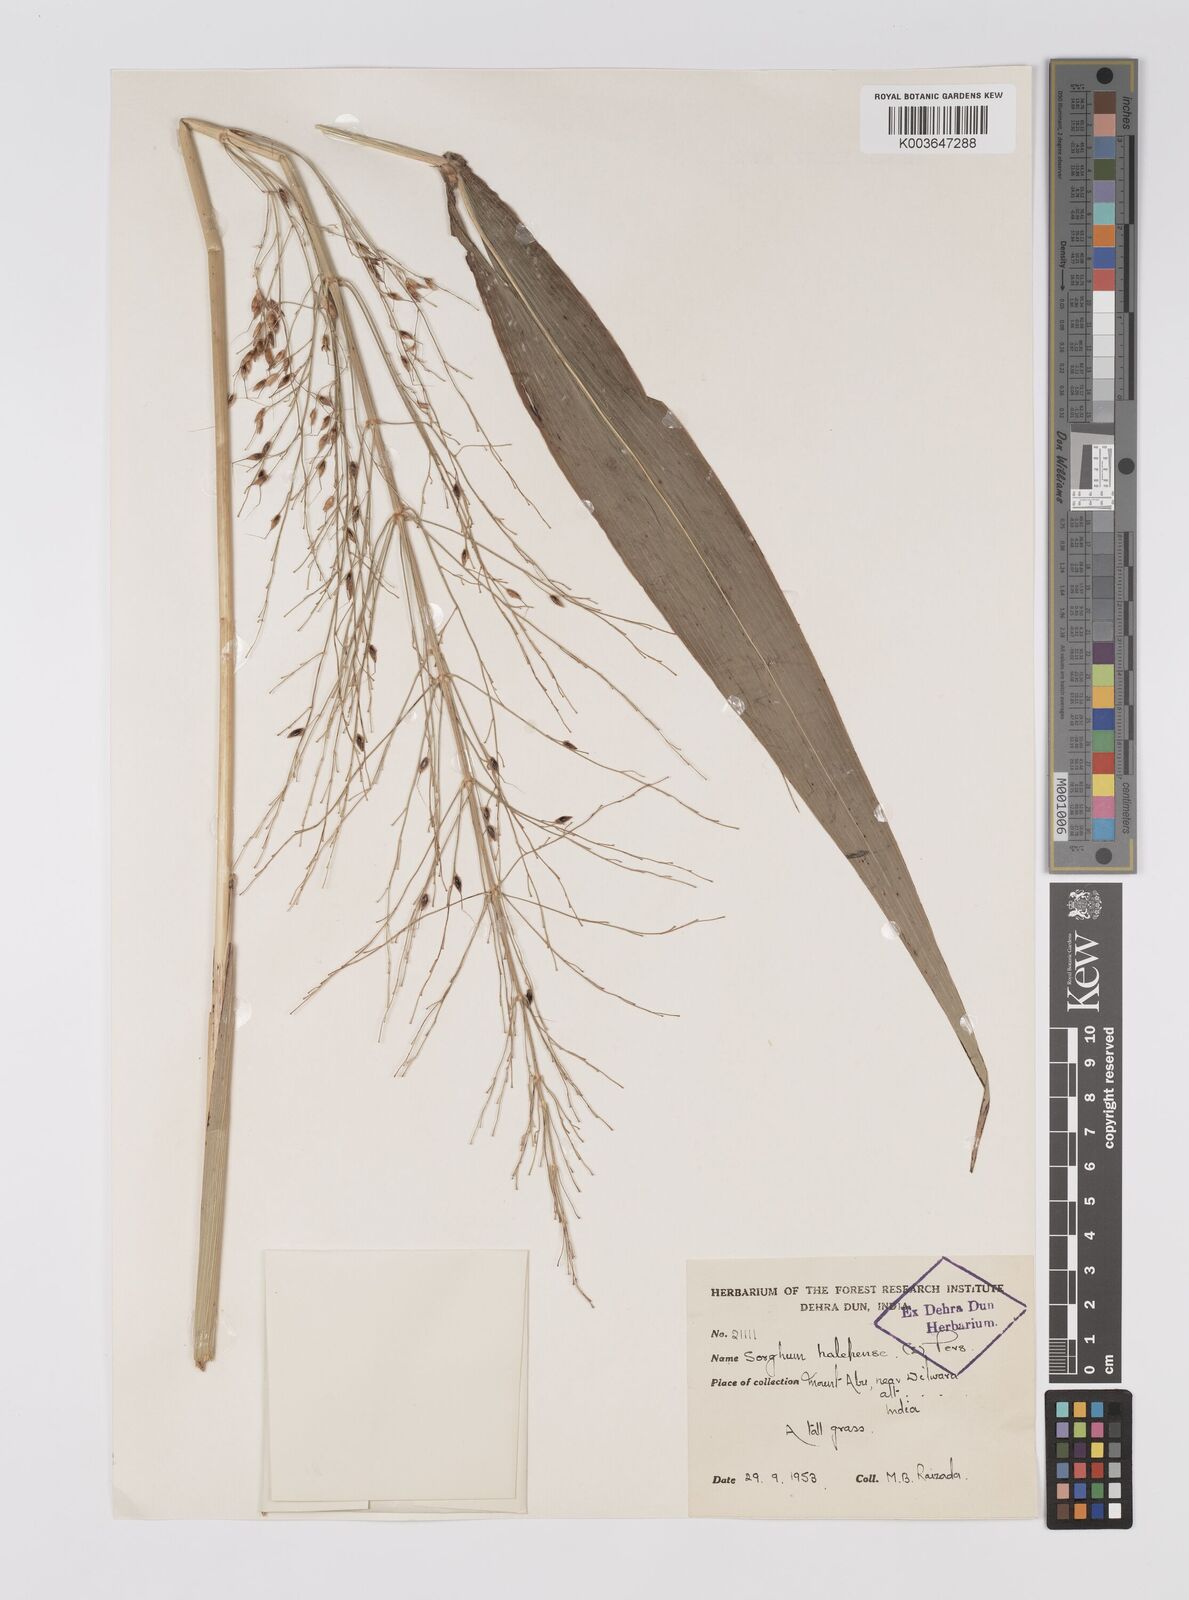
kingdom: Plantae
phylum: Tracheophyta
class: Liliopsida
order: Poales
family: Poaceae
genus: Sorghum
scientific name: Sorghum halepense
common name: Johnson-grass
